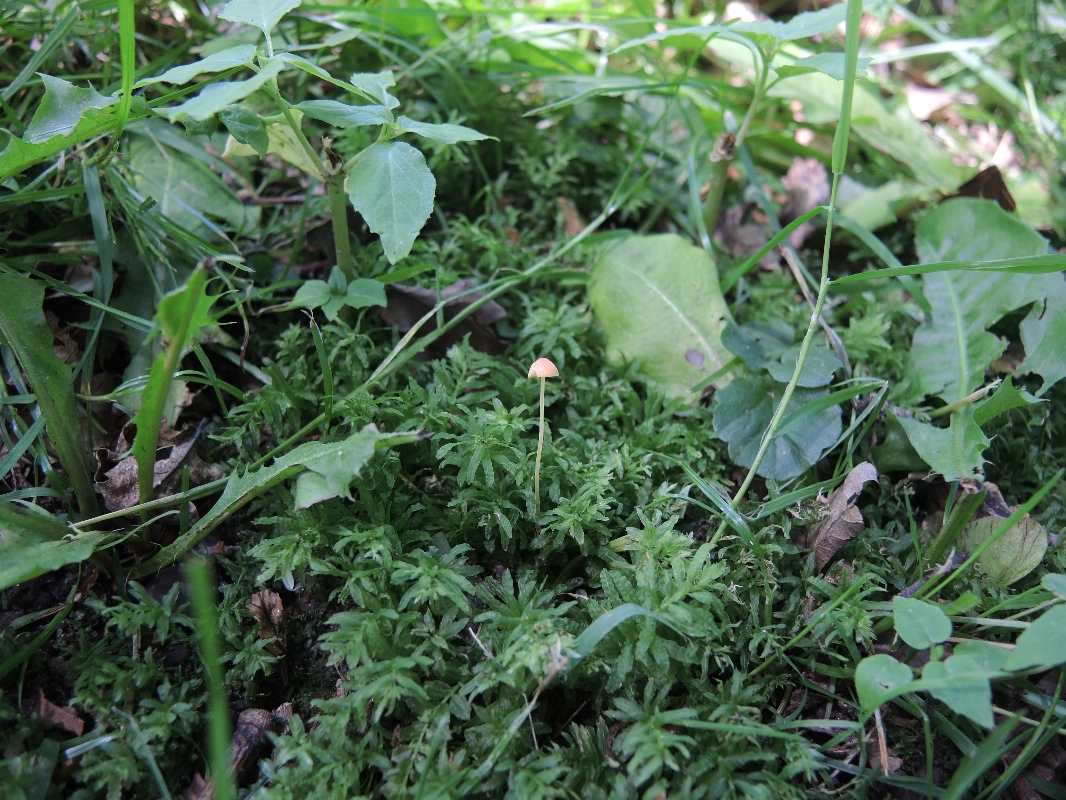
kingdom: Fungi
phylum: Basidiomycota
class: Agaricomycetes
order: Agaricales
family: Mycenaceae
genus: Mycena
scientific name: Mycena acicula
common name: orange huesvamp
